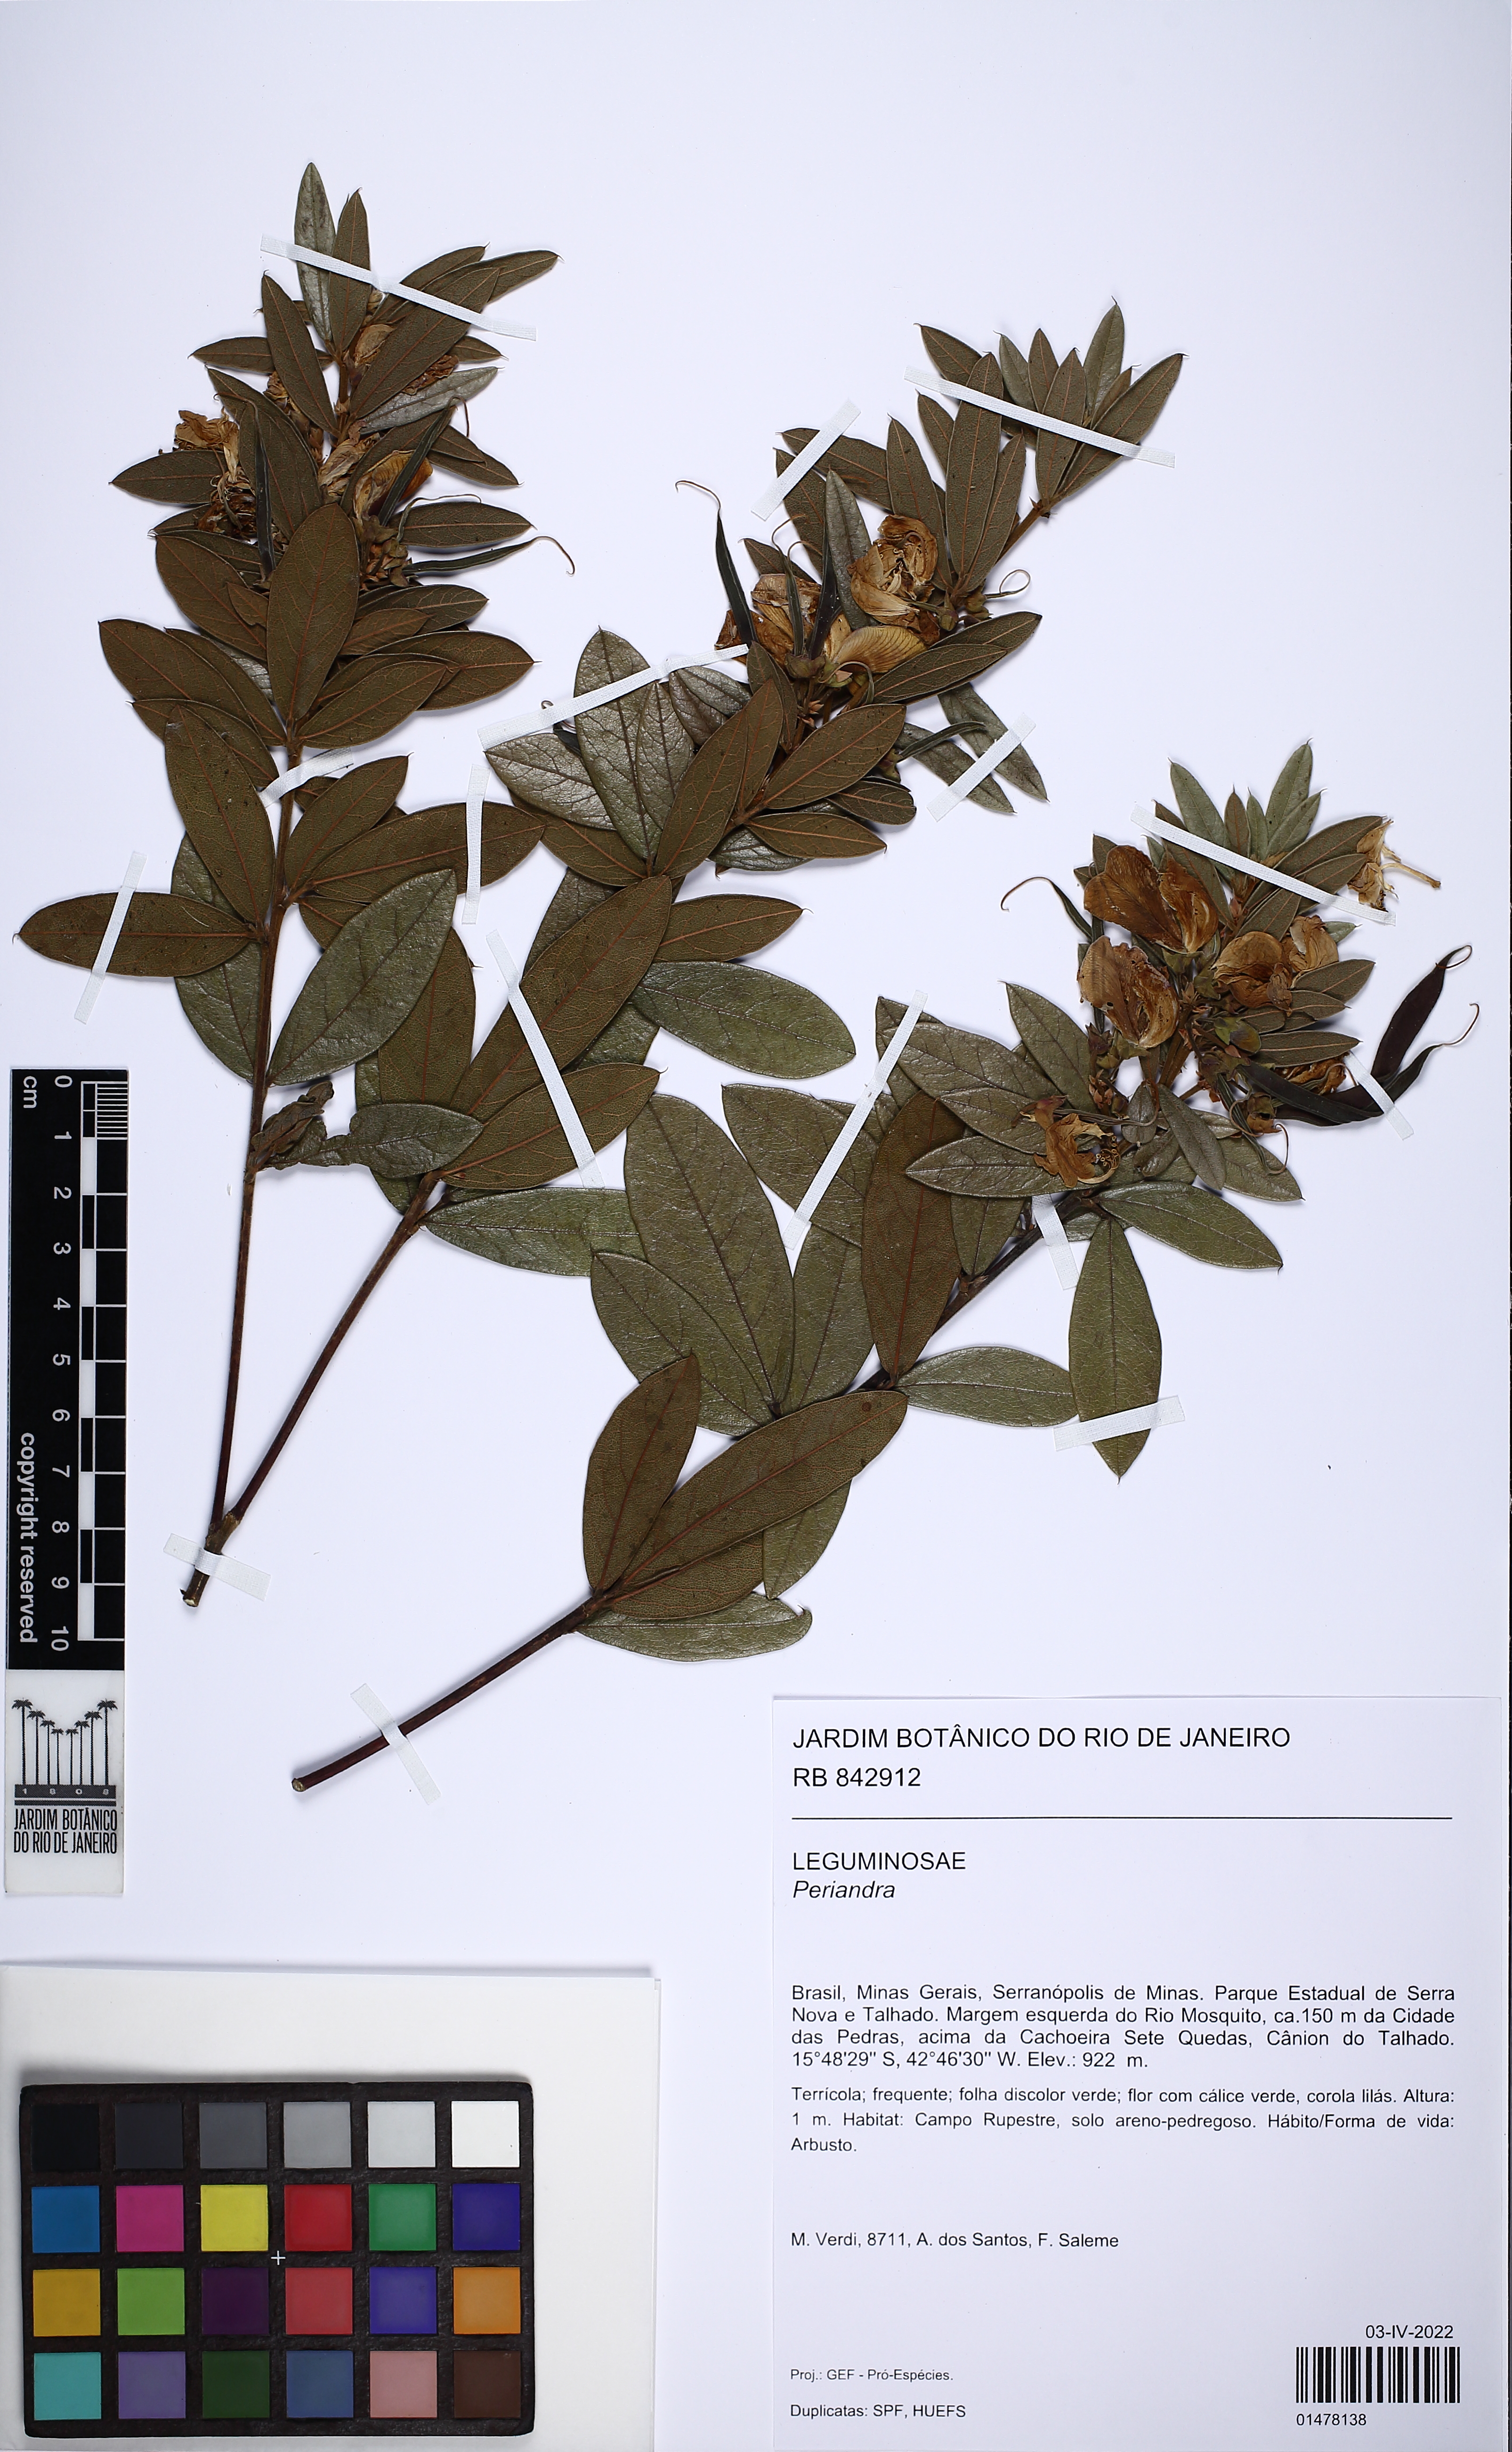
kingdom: Plantae
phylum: Tracheophyta
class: Magnoliopsida
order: Fabales
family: Fabaceae
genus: Periandra
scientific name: Periandra
